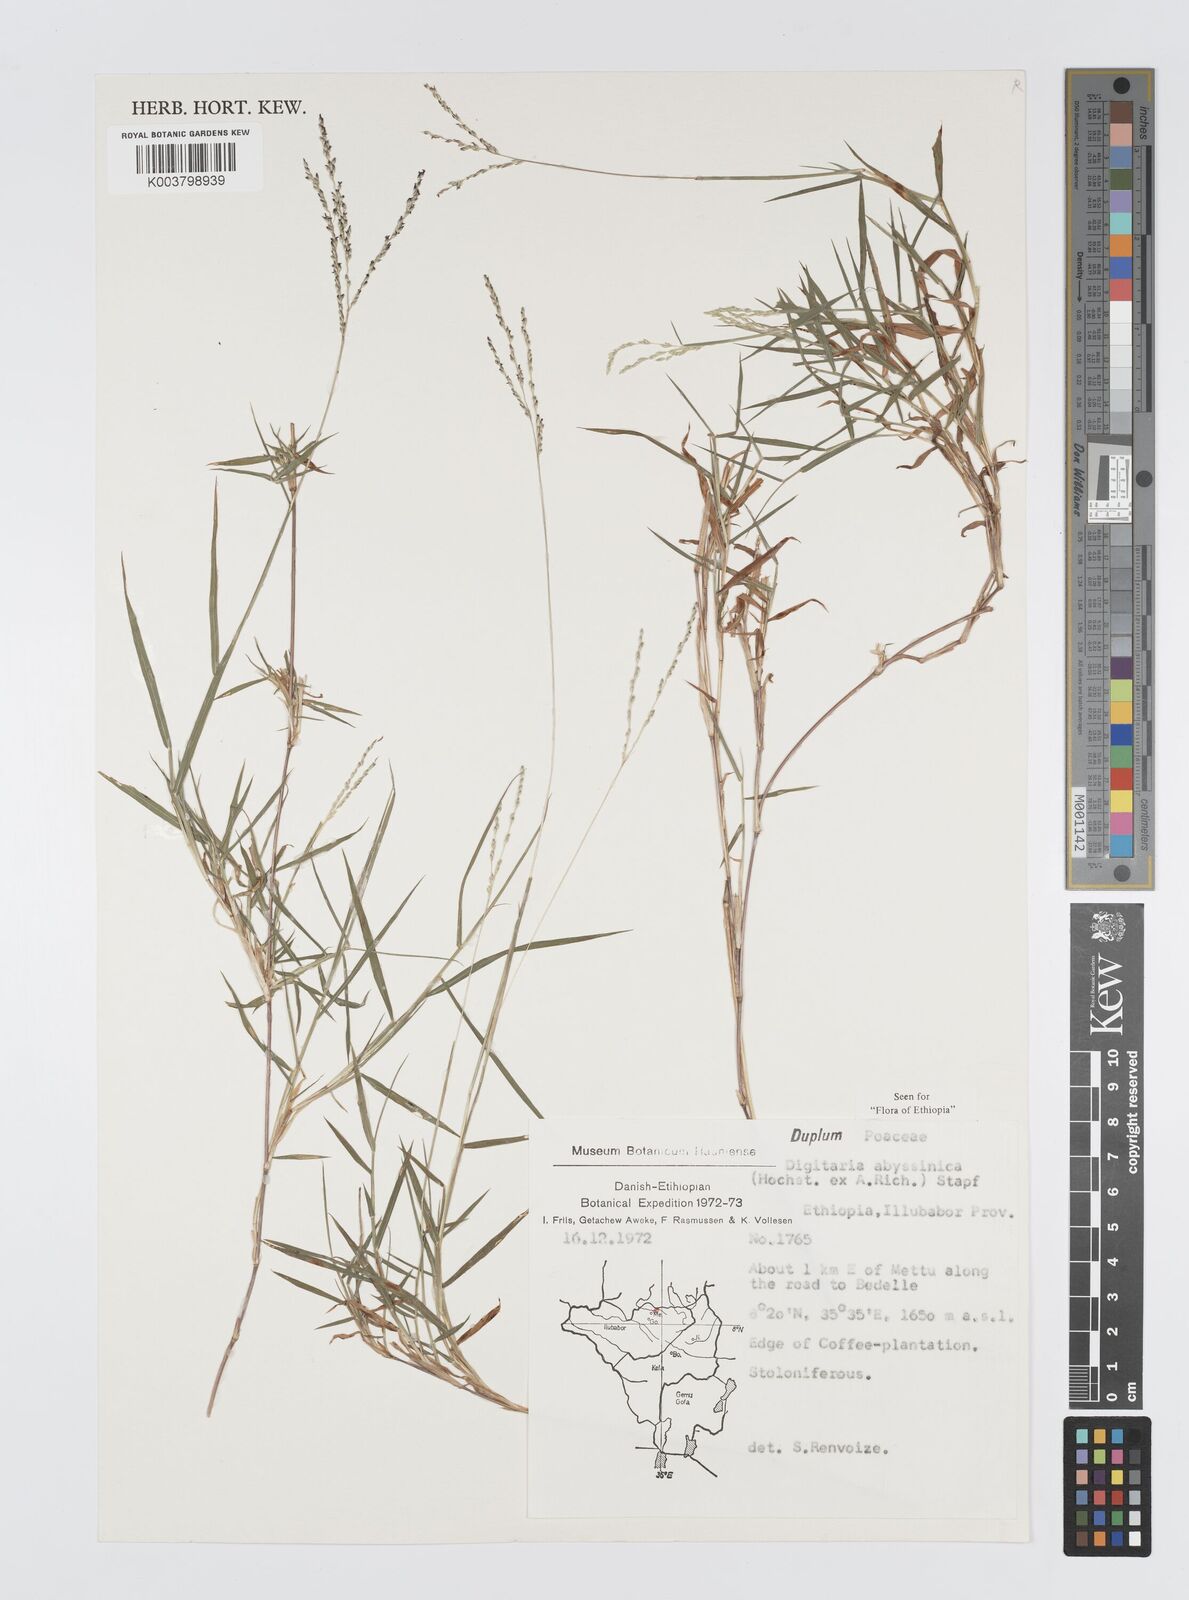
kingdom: Plantae
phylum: Tracheophyta
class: Liliopsida
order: Poales
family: Poaceae
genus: Digitaria
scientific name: Digitaria abyssinica
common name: African couchgrass
